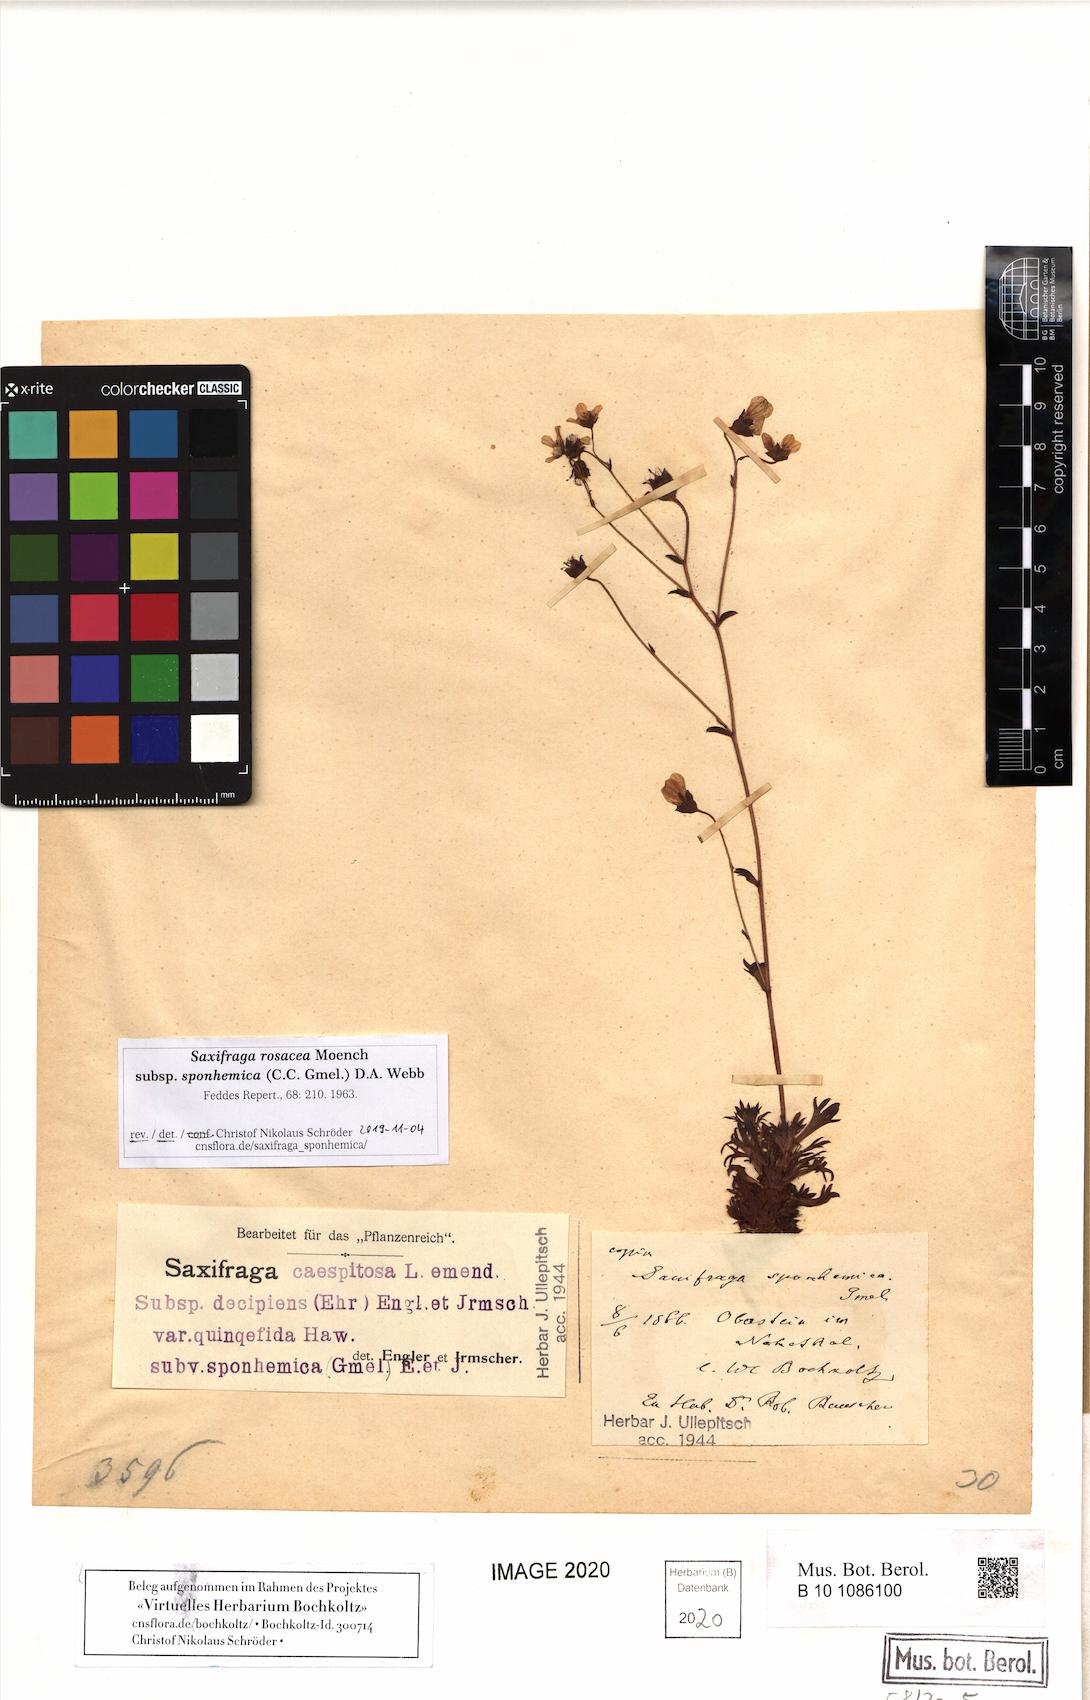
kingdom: Plantae
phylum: Tracheophyta
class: Magnoliopsida
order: Saxifragales
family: Saxifragaceae
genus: Saxifraga
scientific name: Saxifraga rosacea
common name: Irish saxifrage
